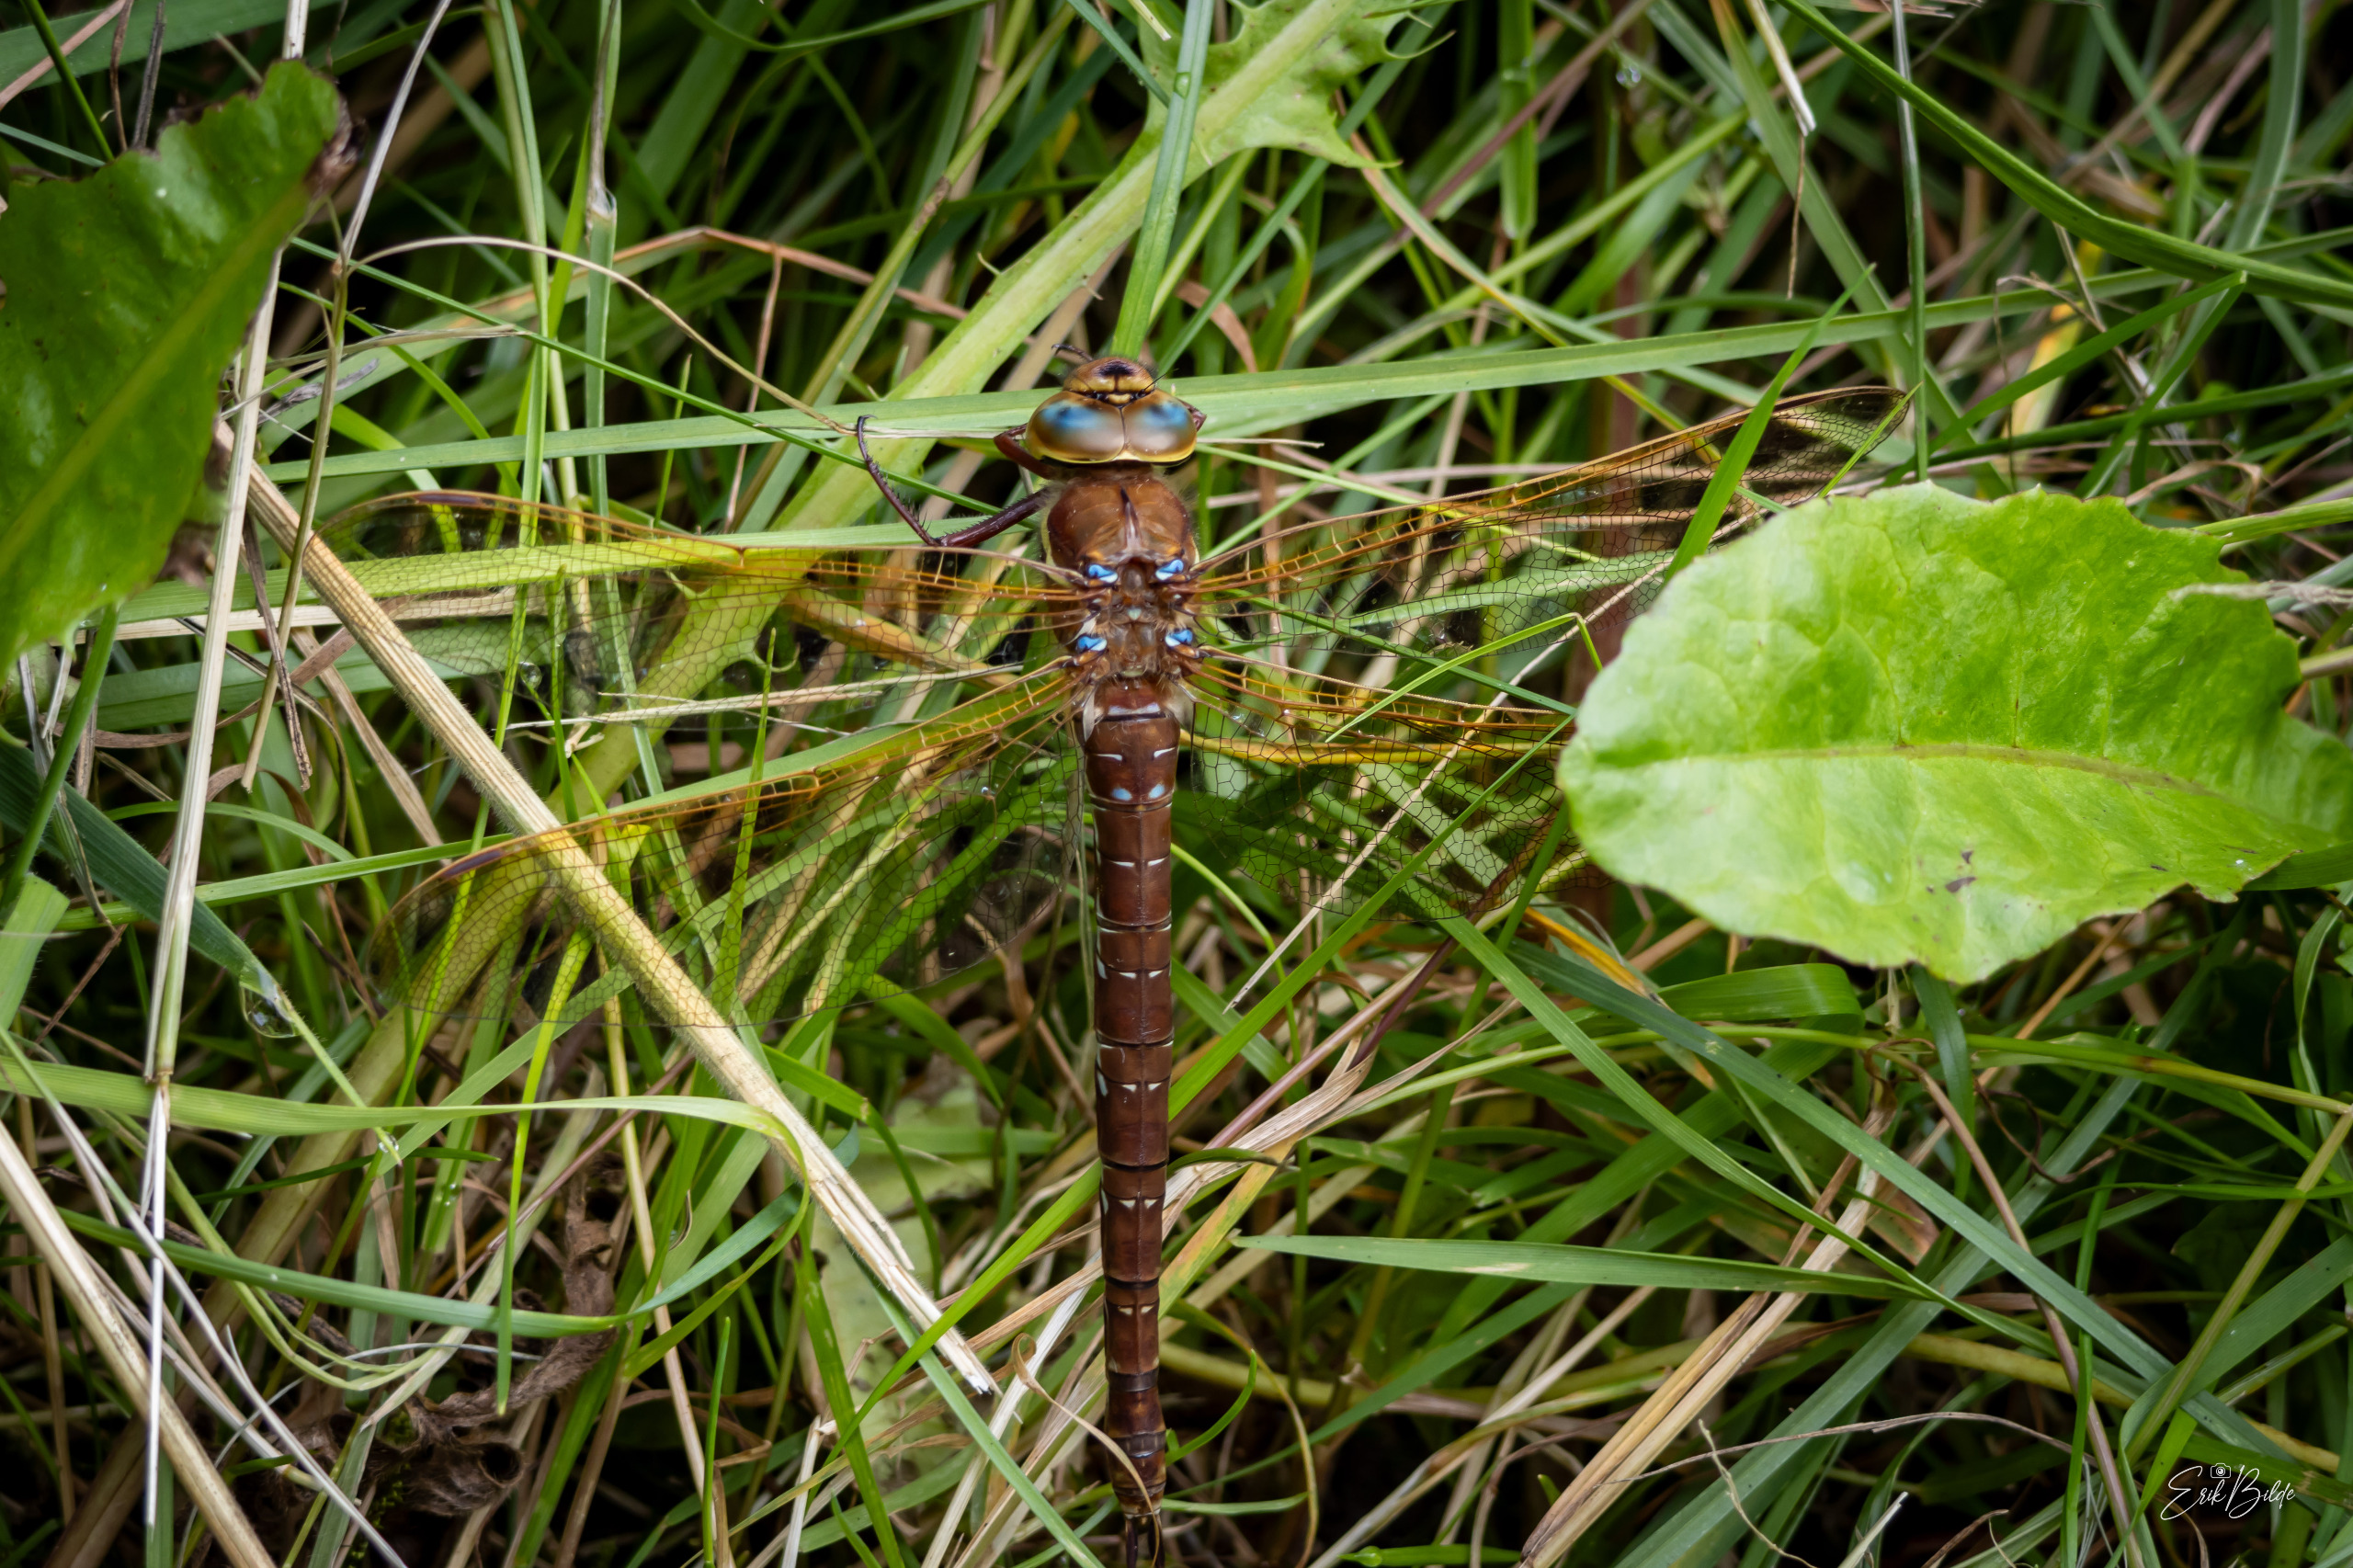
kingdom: Animalia
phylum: Arthropoda
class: Insecta
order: Odonata
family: Aeshnidae
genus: Aeshna
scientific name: Aeshna grandis
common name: Brun mosaikguldsmed
